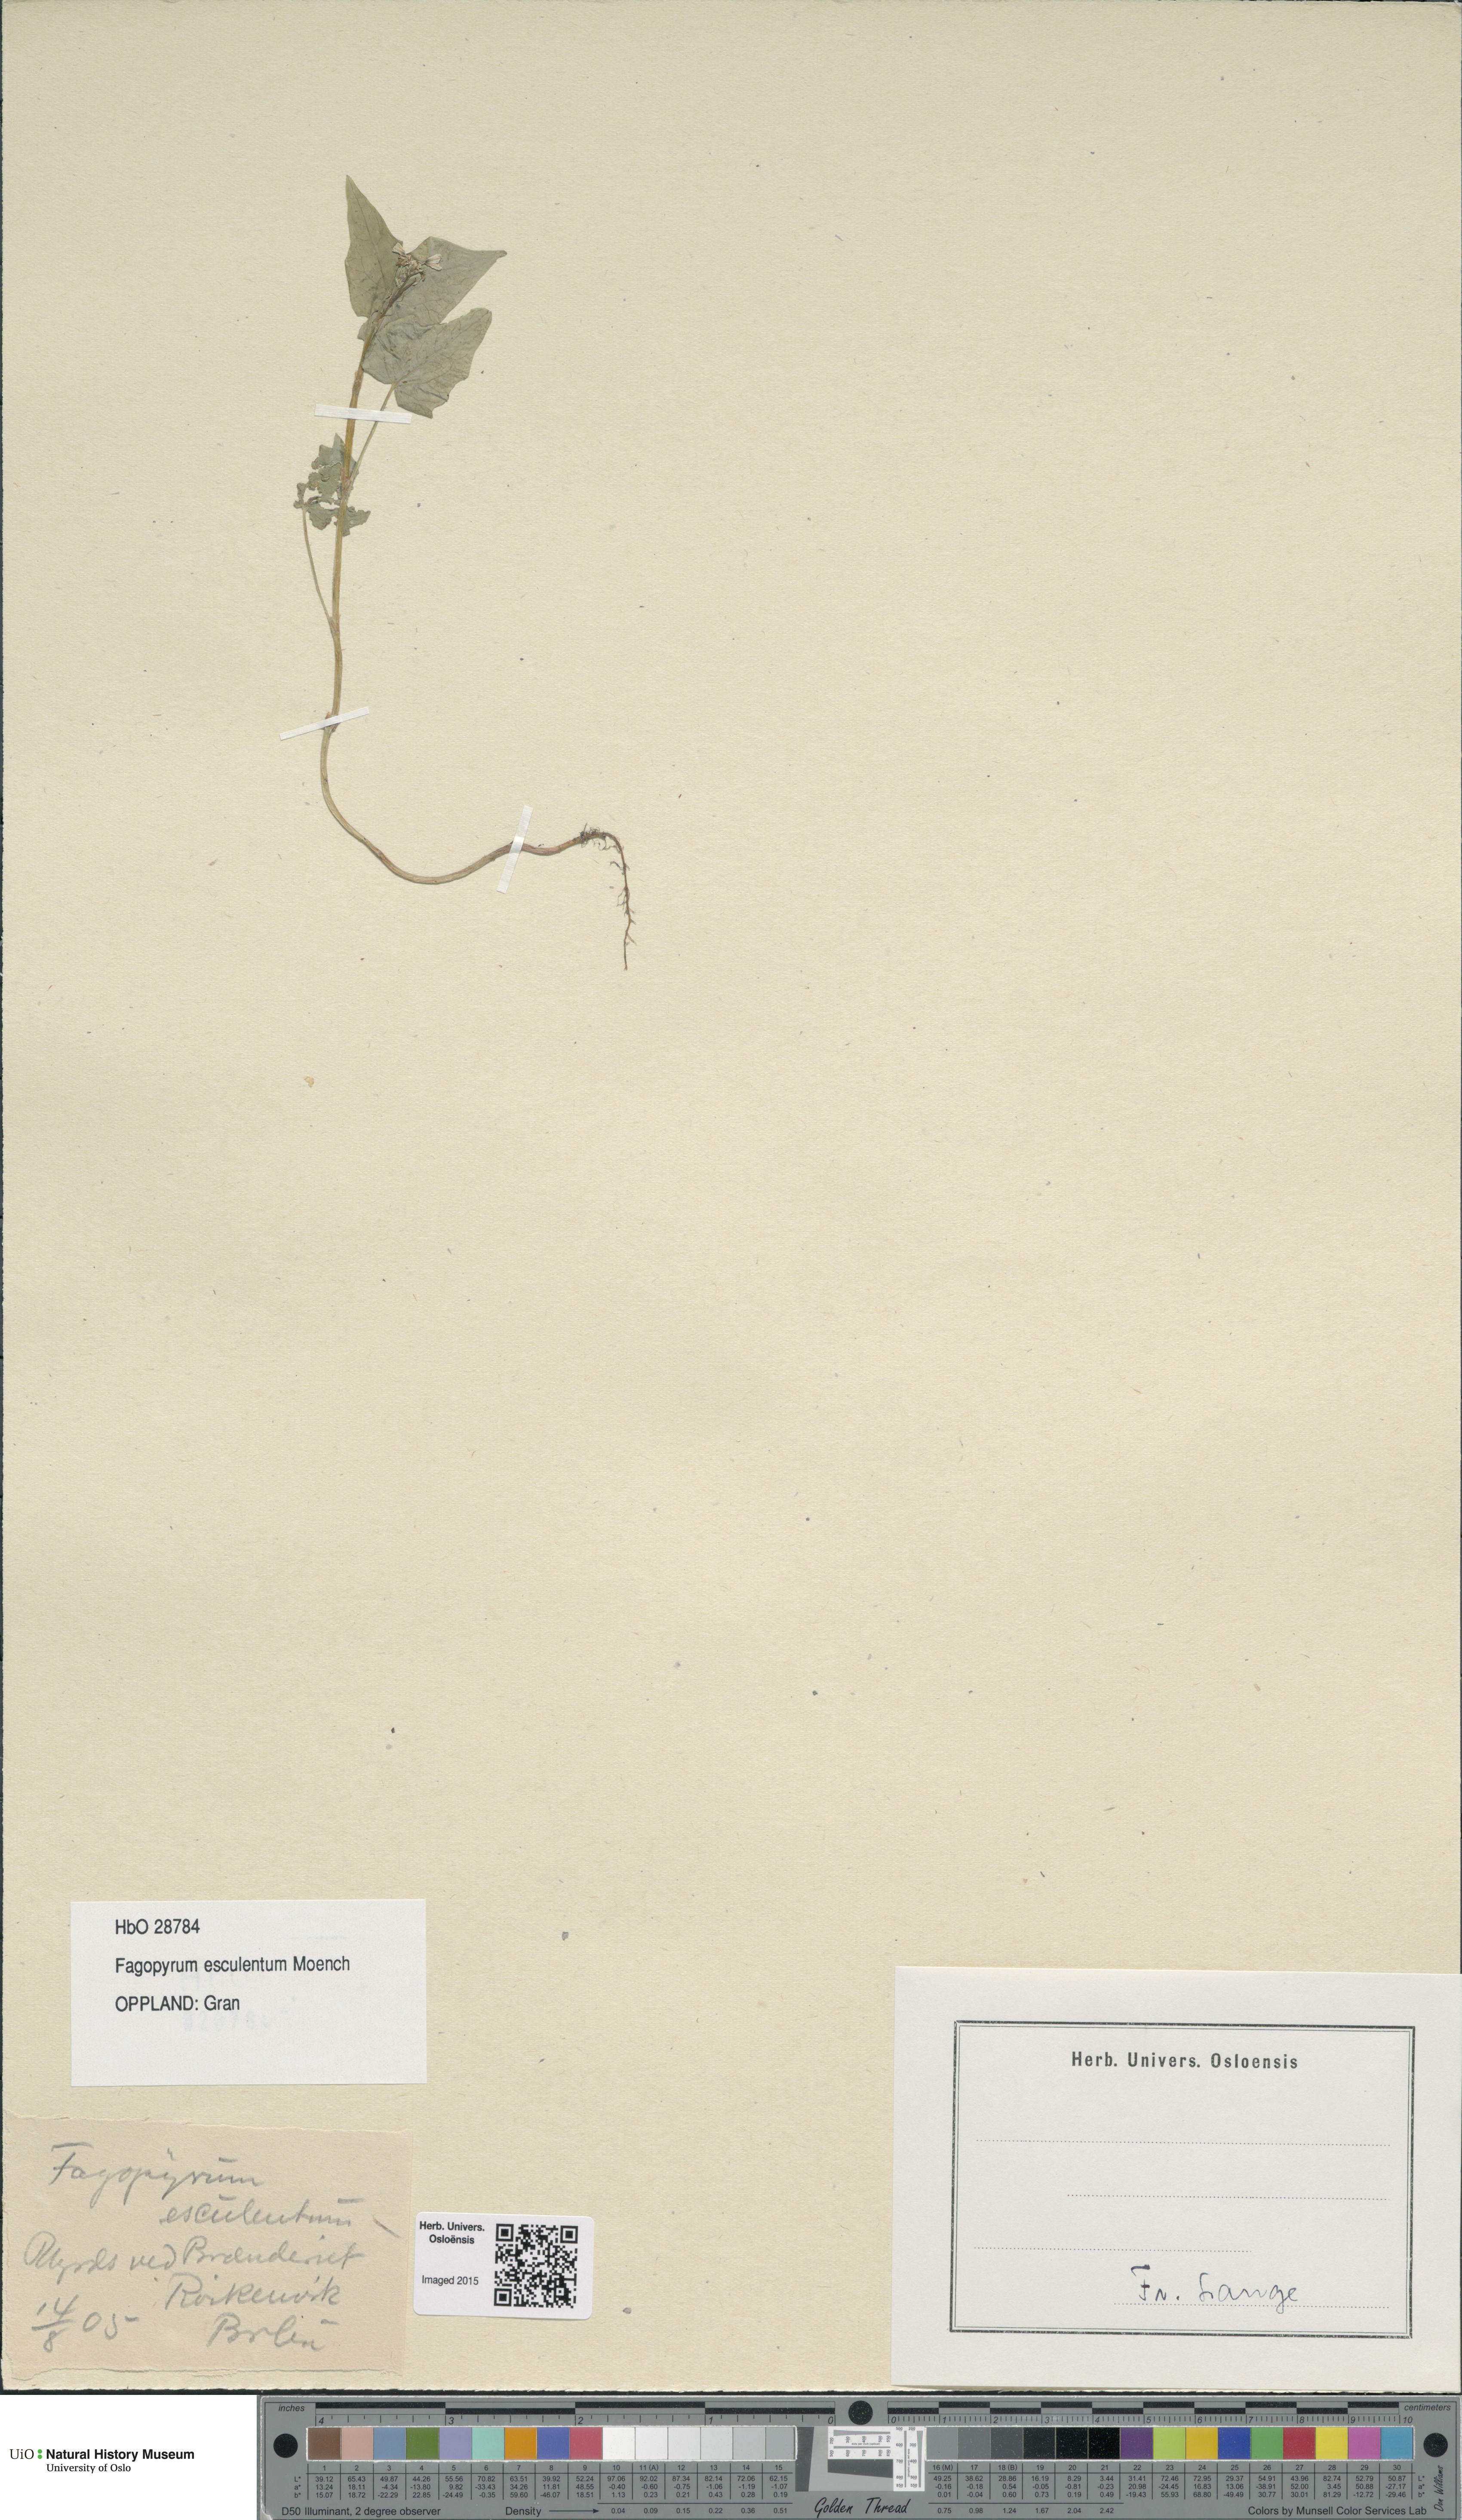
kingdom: Plantae
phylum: Tracheophyta
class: Magnoliopsida
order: Caryophyllales
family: Polygonaceae
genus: Fagopyrum
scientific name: Fagopyrum esculentum
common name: Buckwheat
